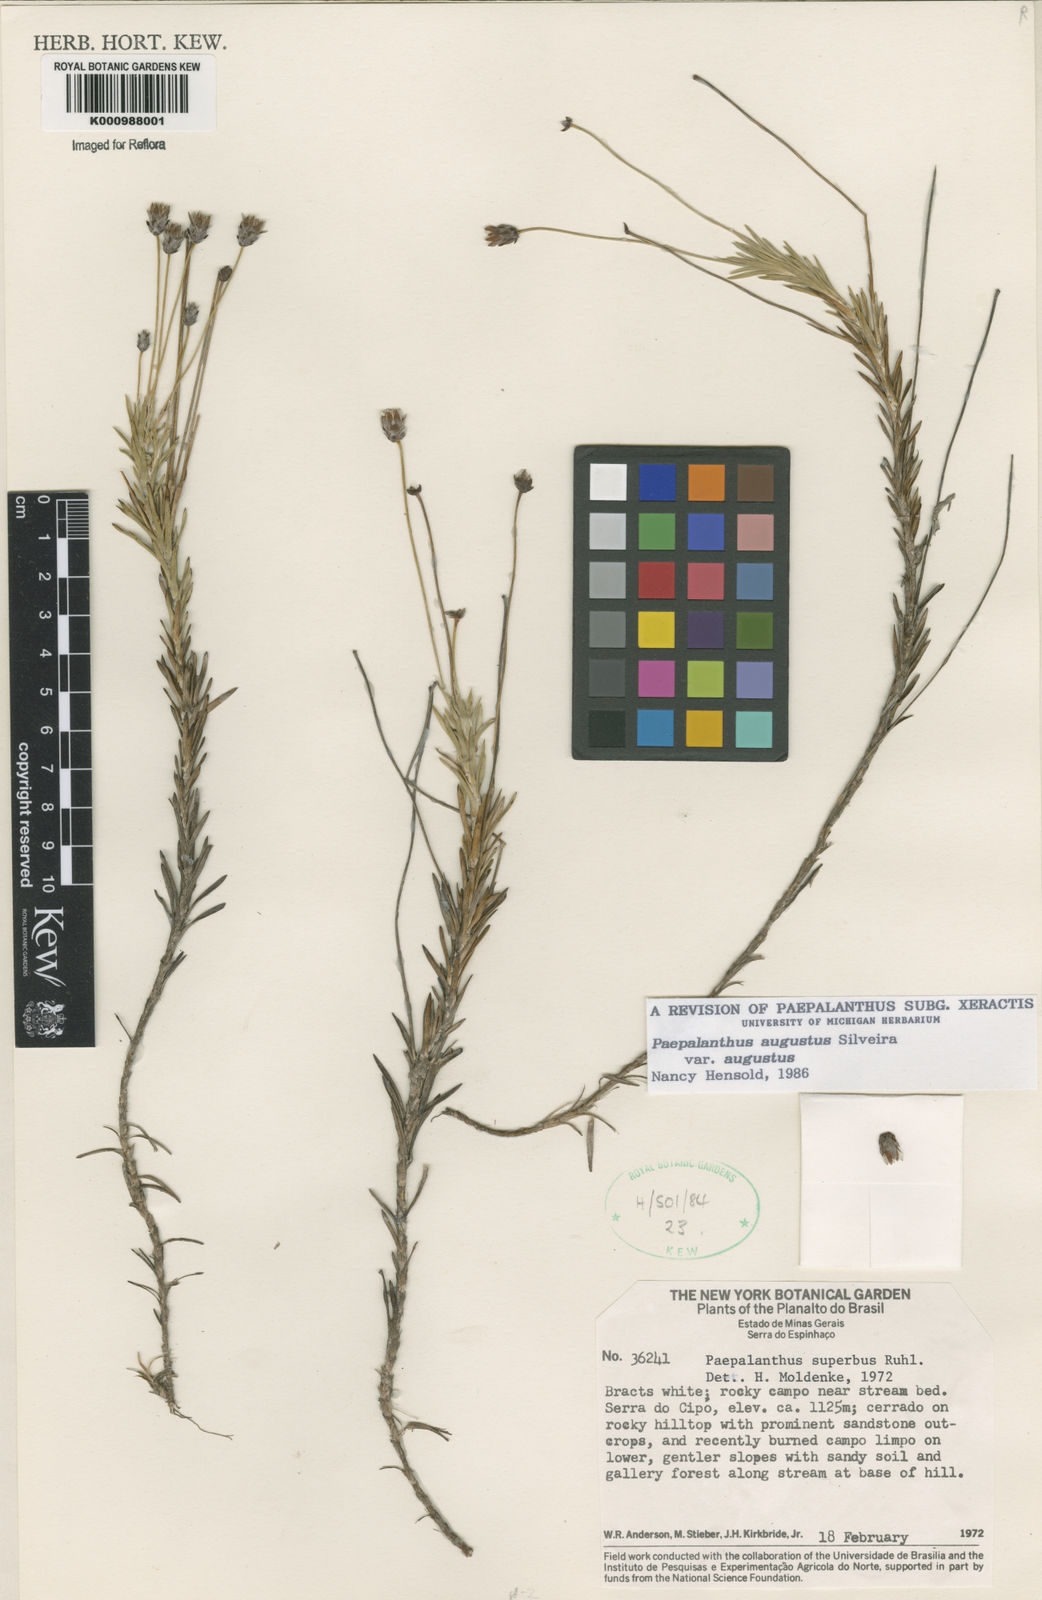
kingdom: Plantae
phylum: Tracheophyta
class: Liliopsida
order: Poales
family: Eriocaulaceae
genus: Paepalanthus
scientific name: Paepalanthus augustus
